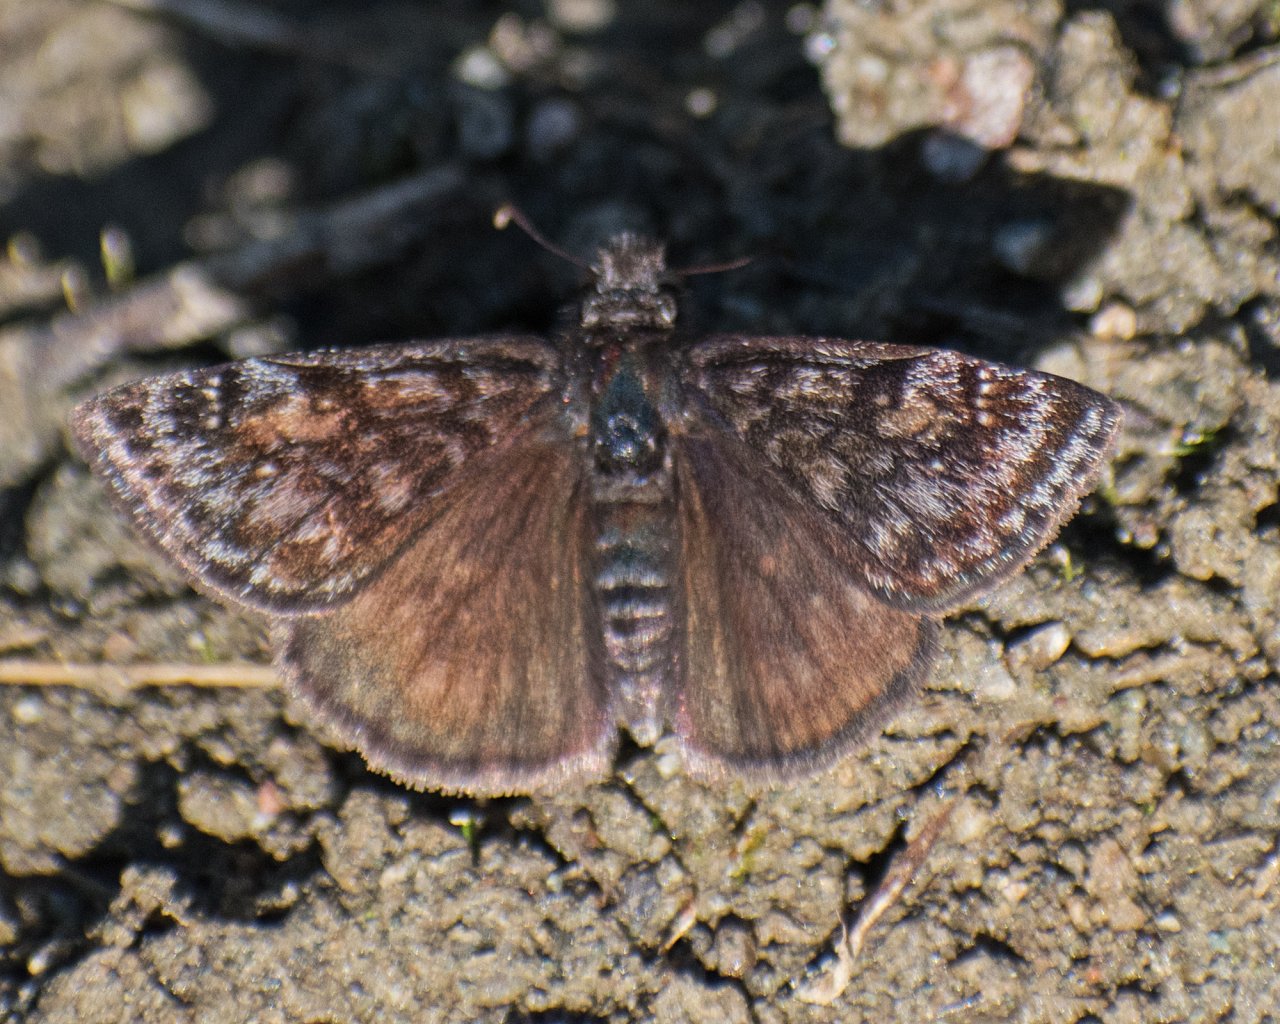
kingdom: Animalia
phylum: Arthropoda
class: Insecta
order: Lepidoptera
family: Hesperiidae
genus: Erynnis
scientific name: Erynnis pacuvius
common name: Pacuvius Duskywing
